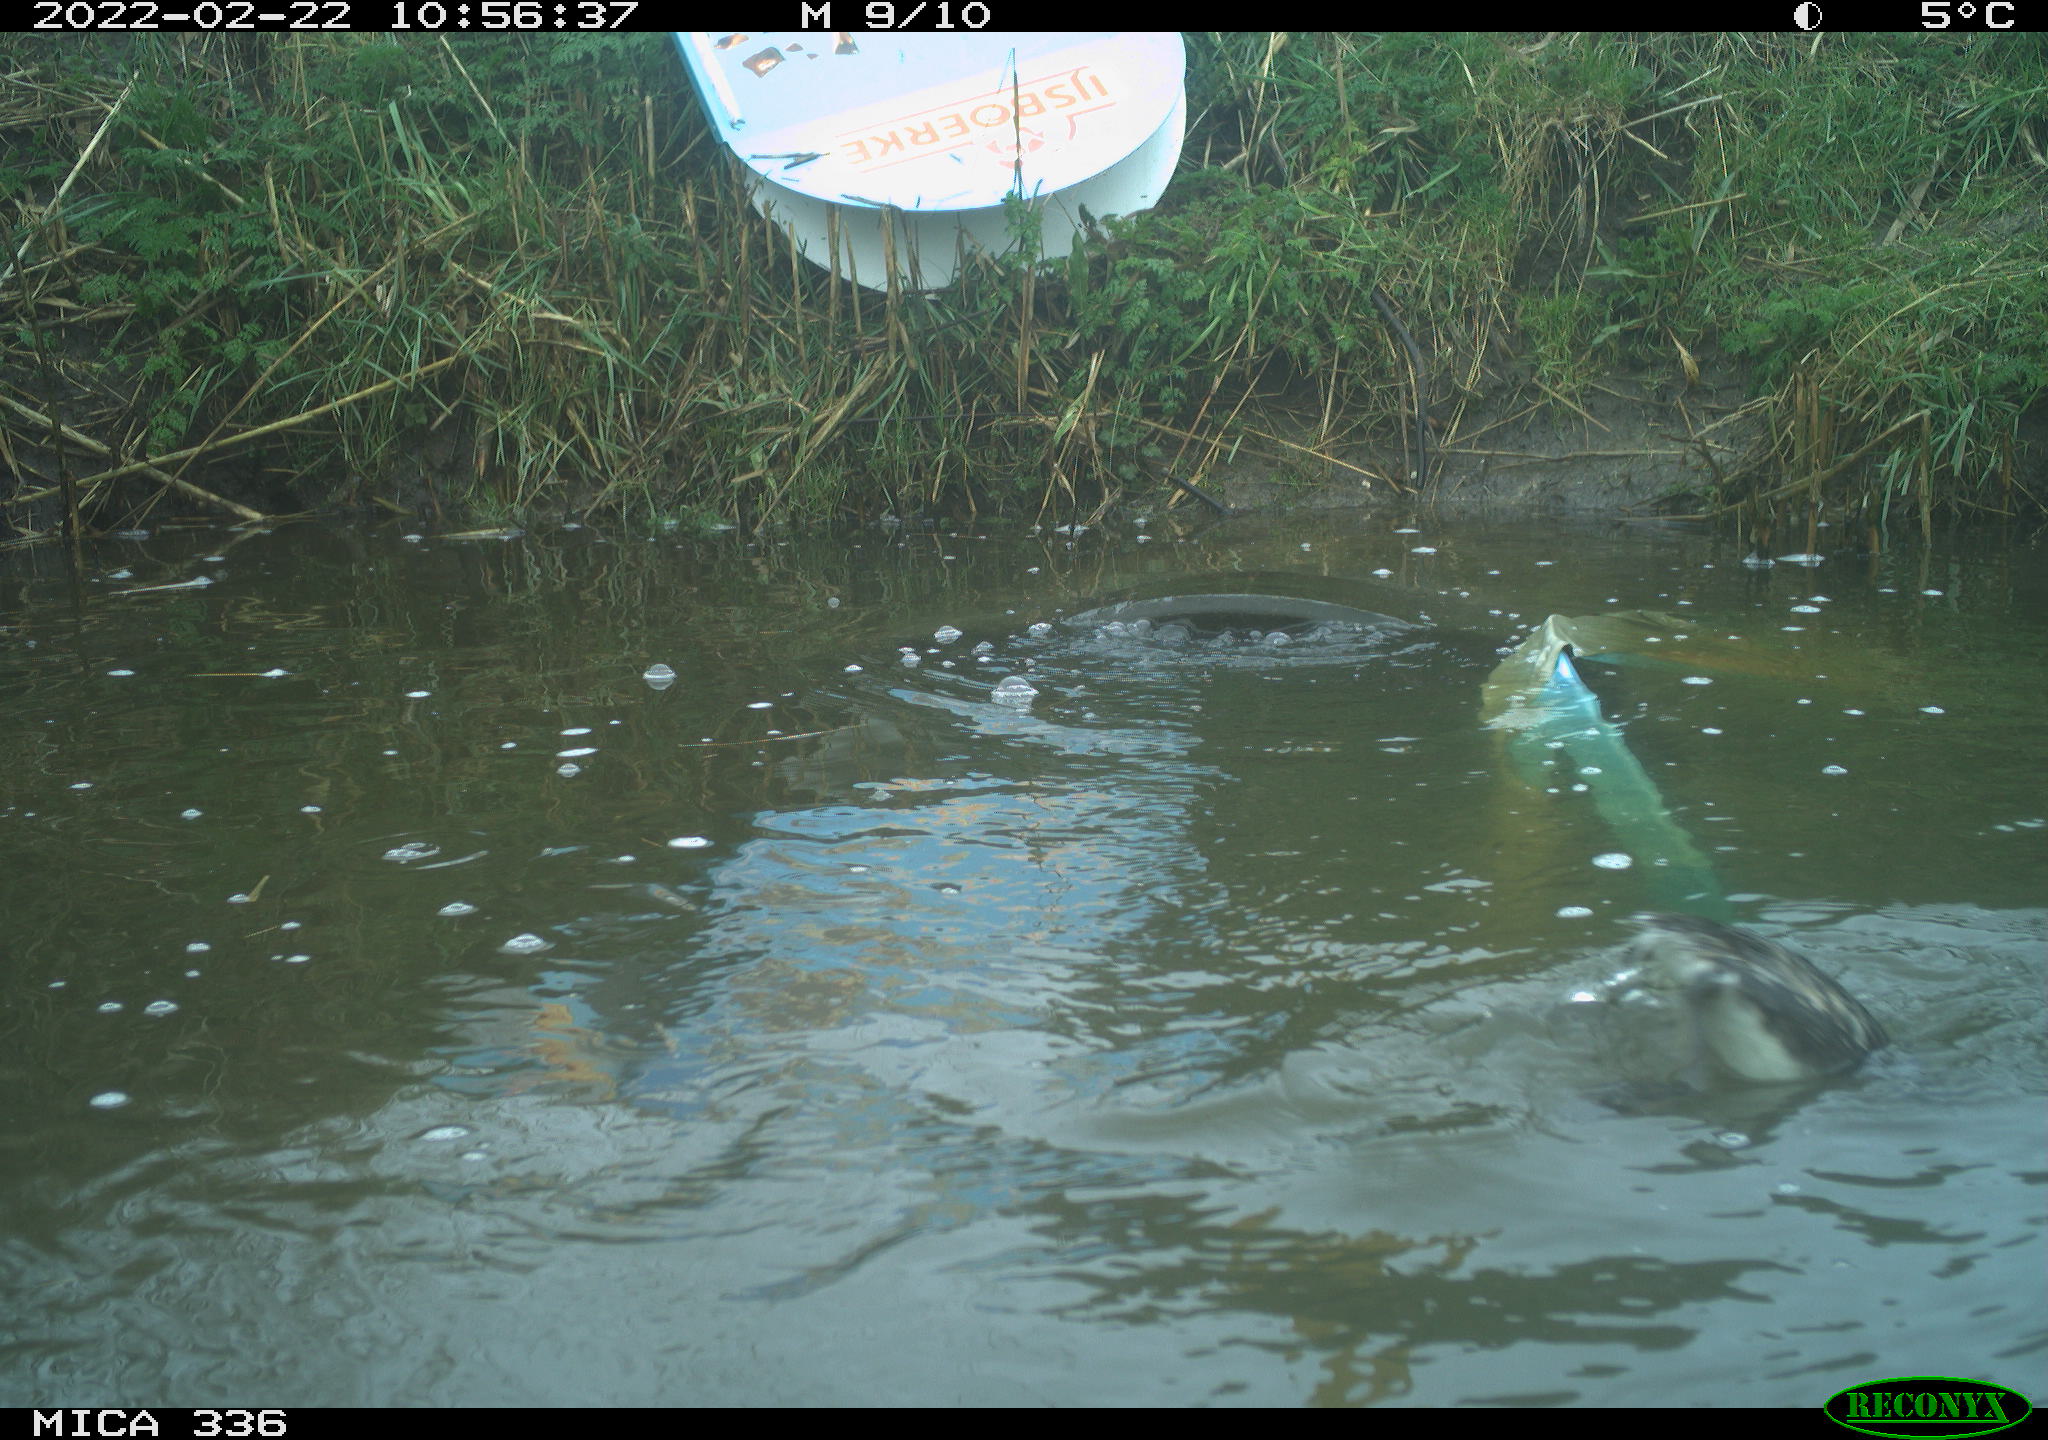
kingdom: Animalia
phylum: Chordata
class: Aves
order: Podicipediformes
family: Podicipedidae
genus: Podiceps
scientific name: Podiceps cristatus
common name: Great crested grebe
